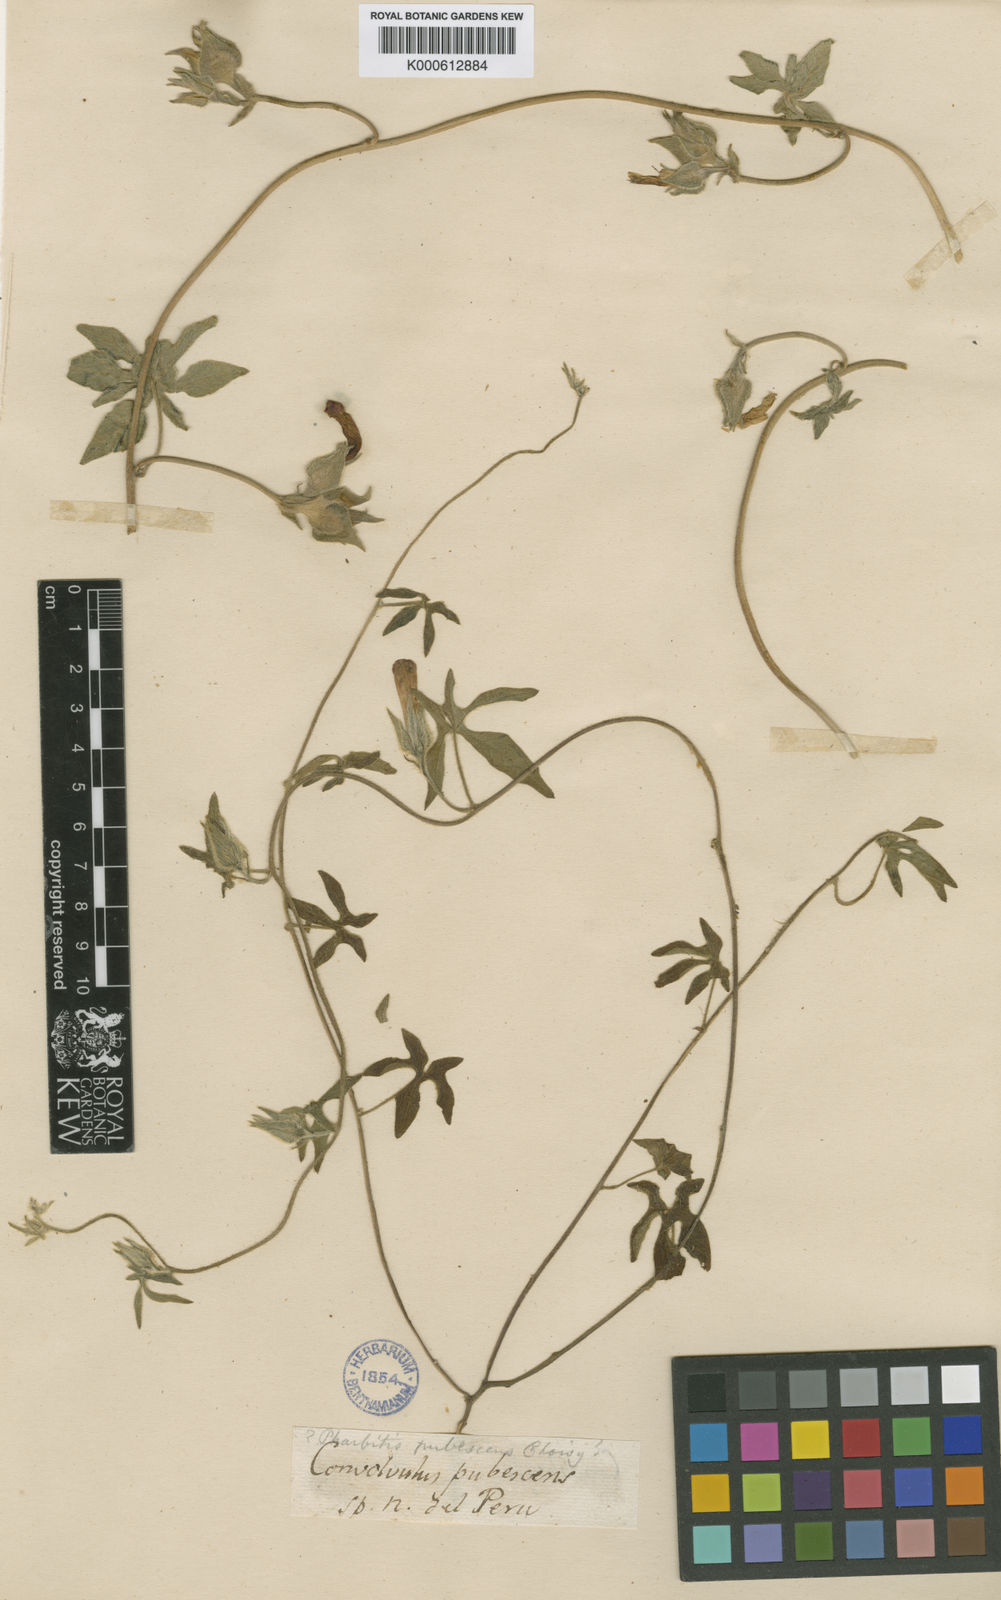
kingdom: Plantae
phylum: Tracheophyta
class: Magnoliopsida
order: Solanales
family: Convolvulaceae
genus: Ipomoea
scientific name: Ipomoea pubescens
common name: Silky morning-glory
